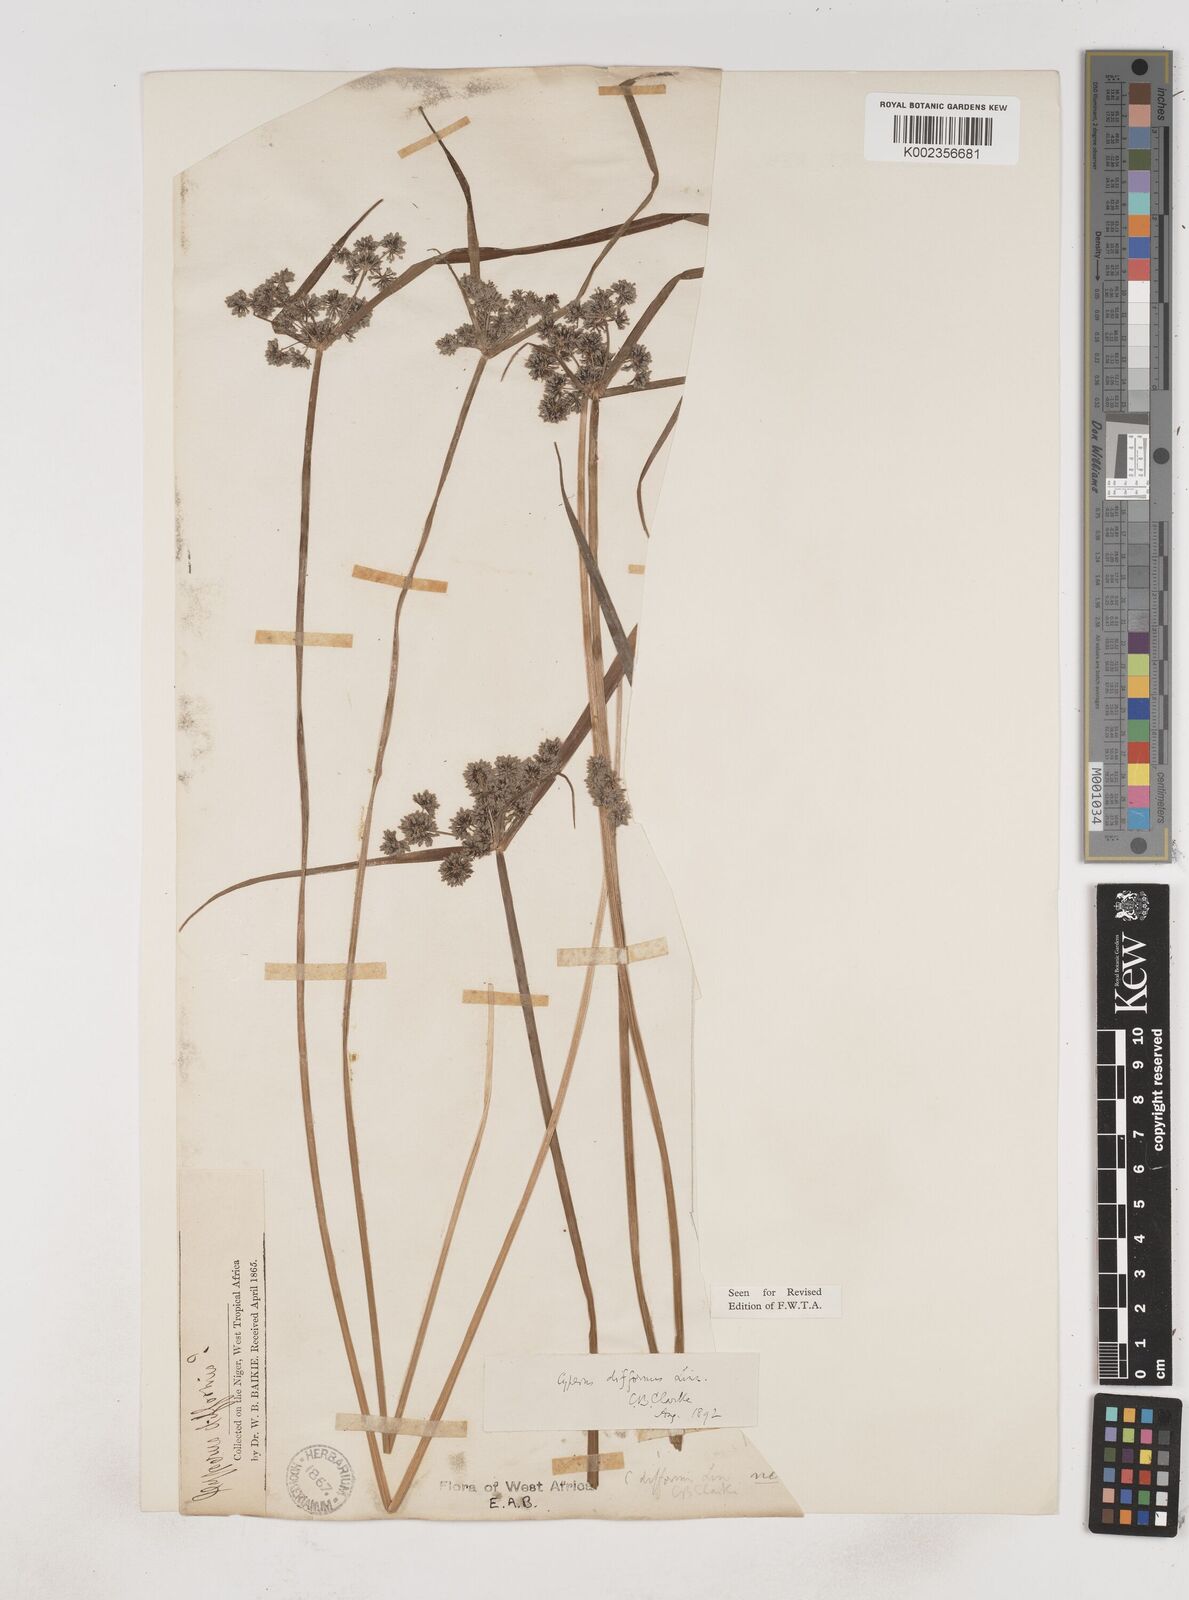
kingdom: Plantae
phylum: Tracheophyta
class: Liliopsida
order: Poales
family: Cyperaceae
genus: Cyperus
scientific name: Cyperus difformis
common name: Variable flatsedge
